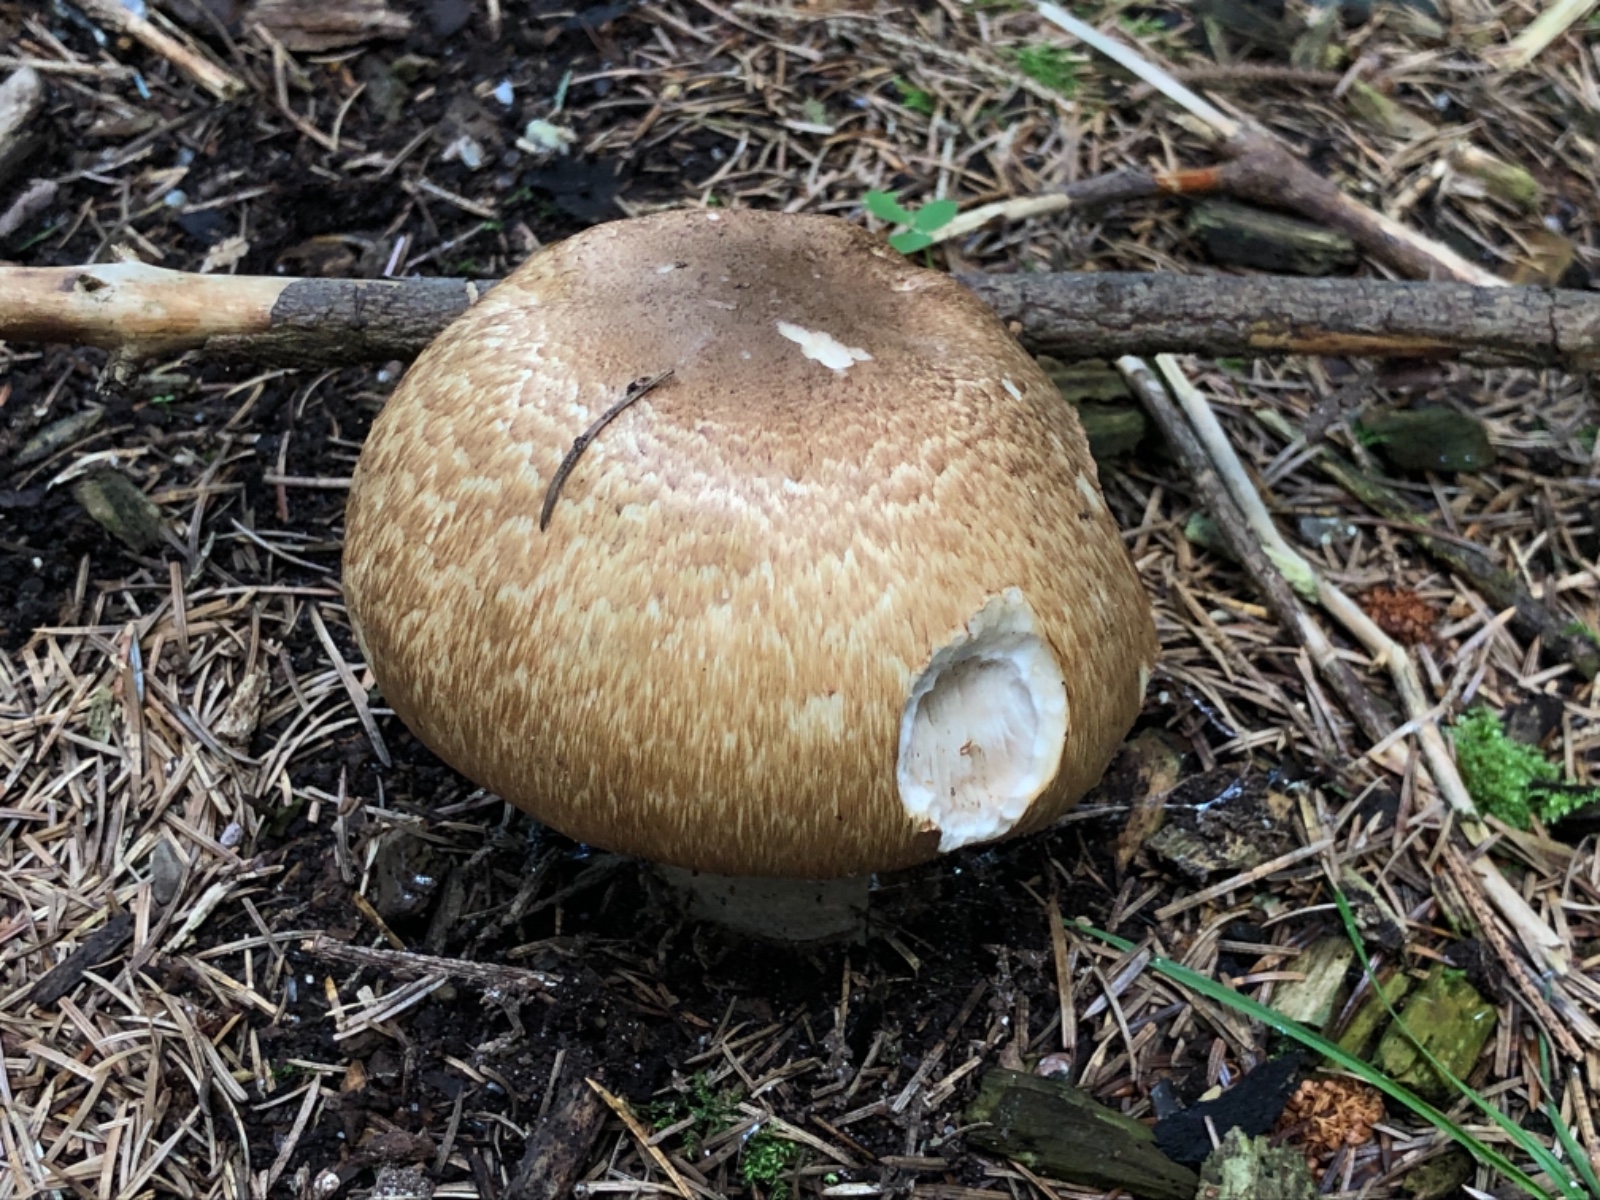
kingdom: Fungi
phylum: Basidiomycota
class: Agaricomycetes
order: Agaricales
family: Agaricaceae
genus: Agaricus
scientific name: Agaricus augustus
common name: prægtig champignon
